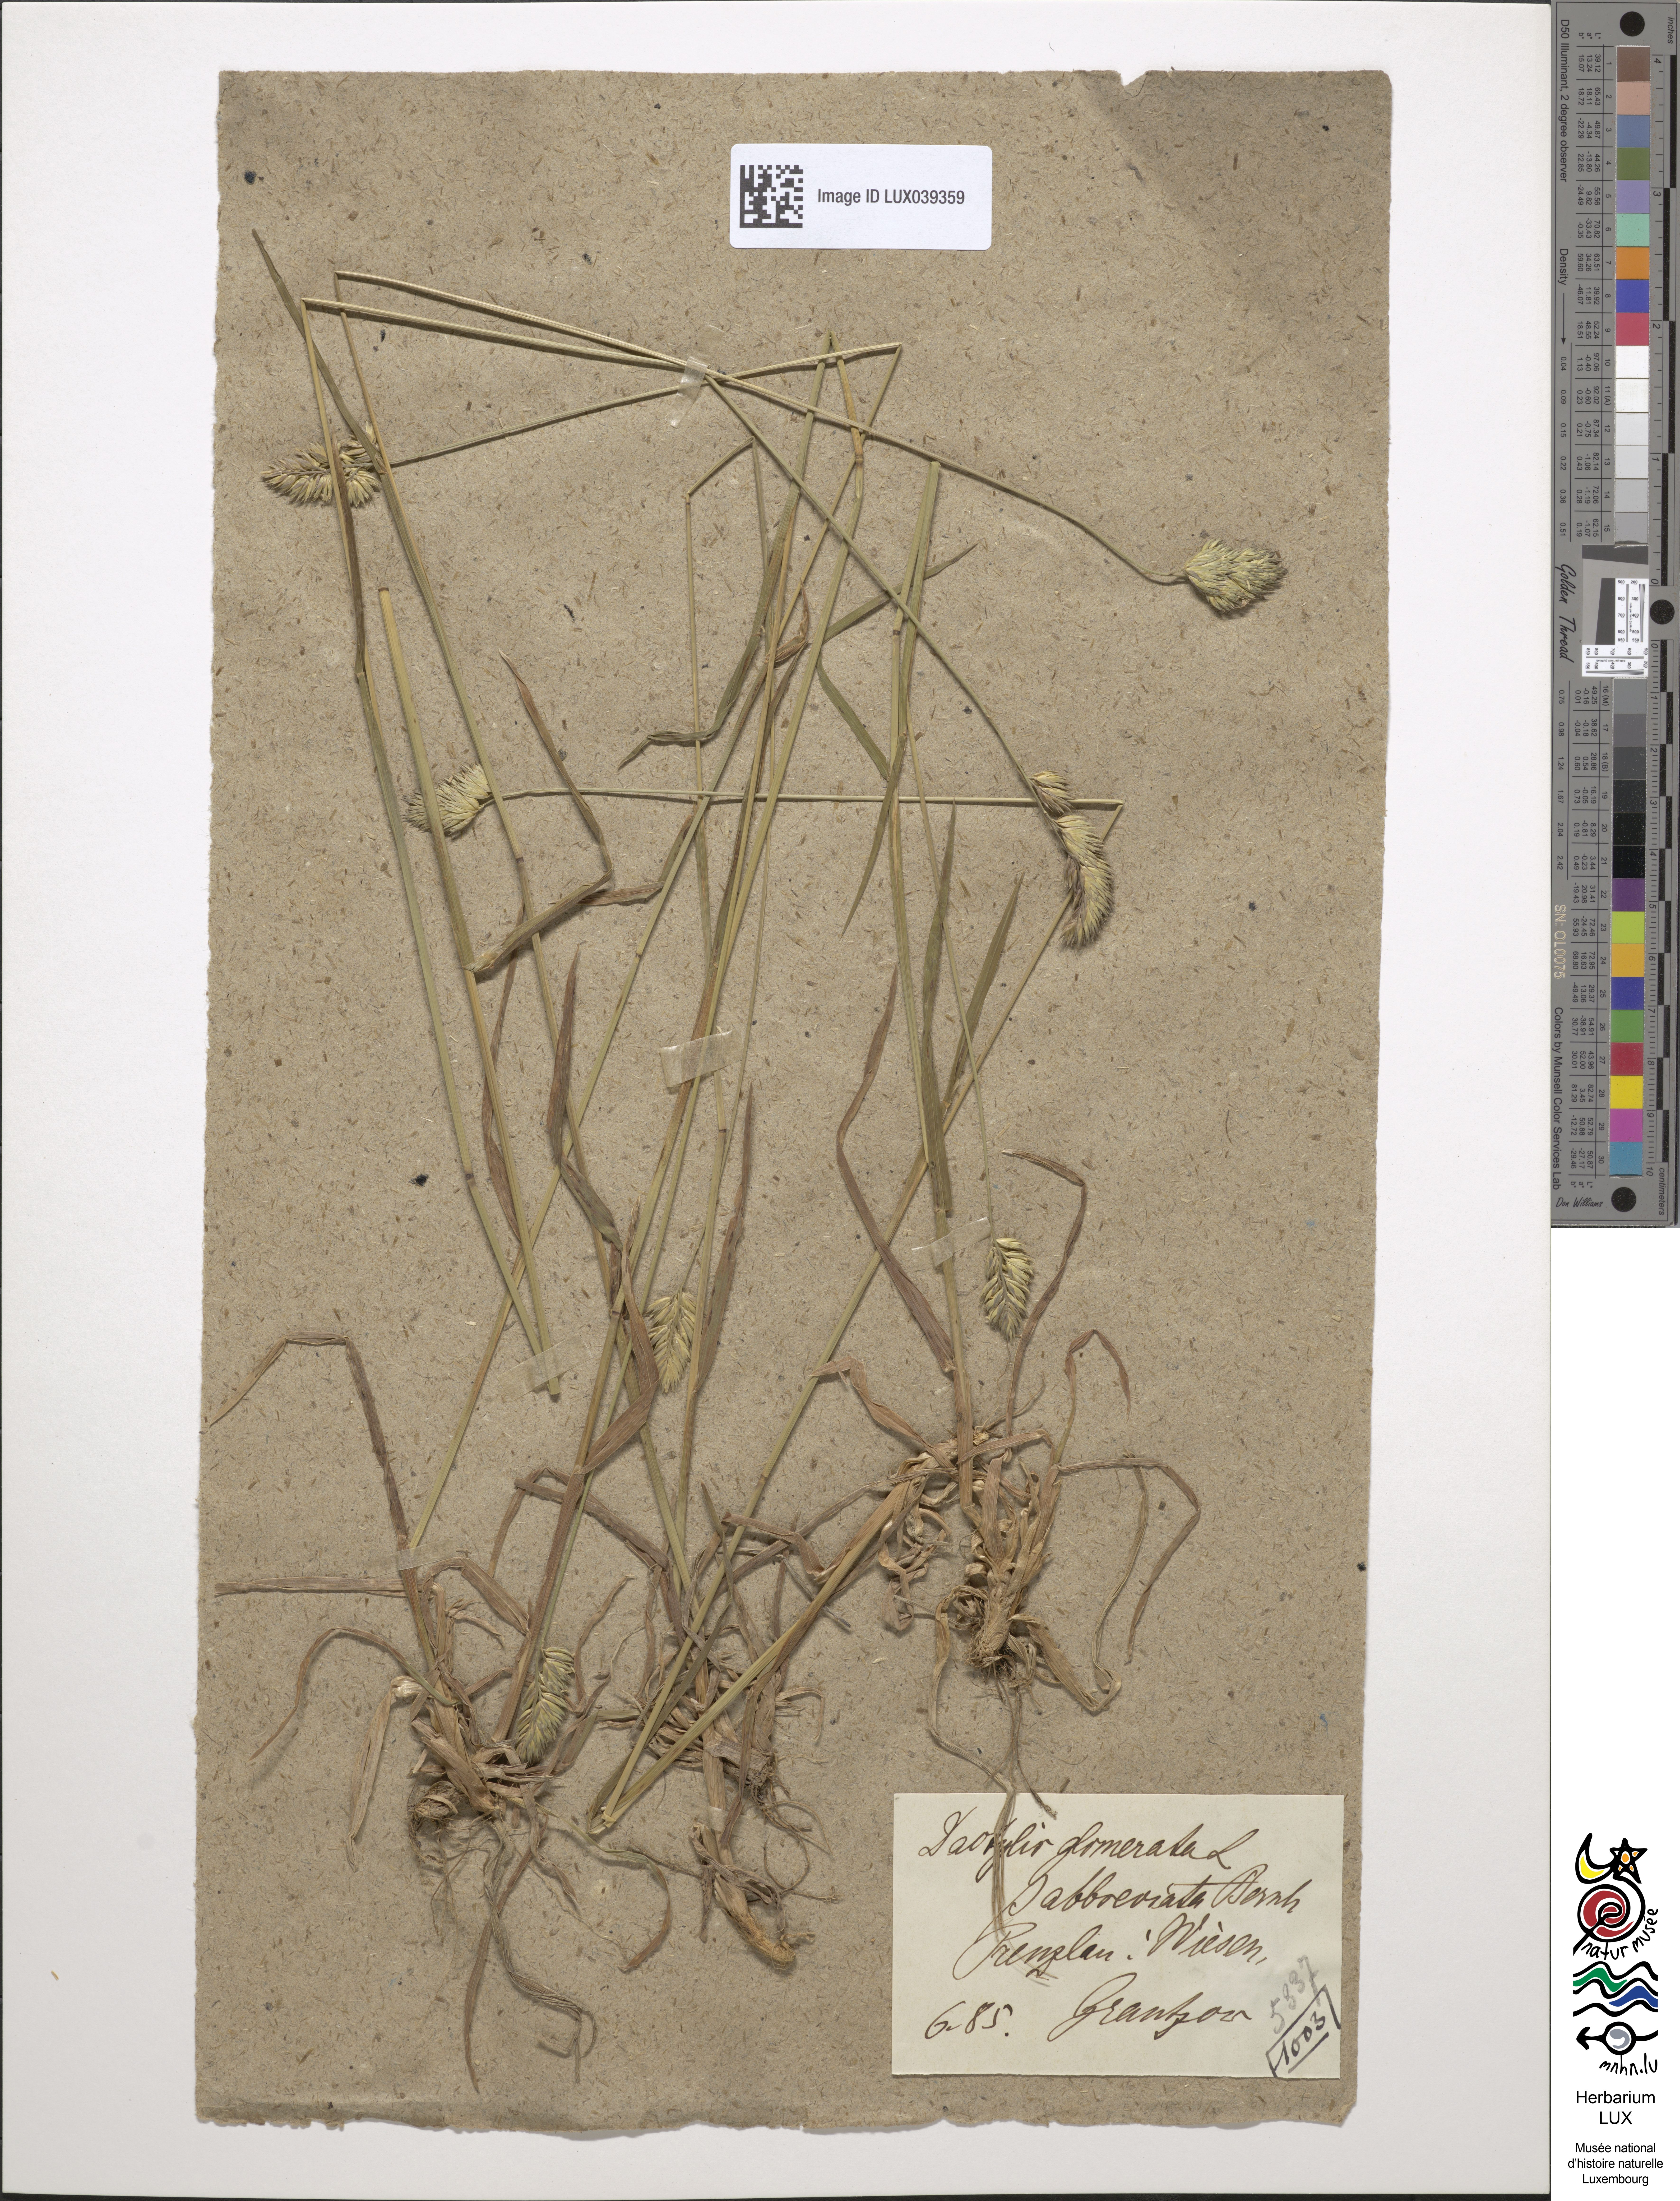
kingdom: Plantae
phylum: Tracheophyta
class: Liliopsida
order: Poales
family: Poaceae
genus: Dactylis
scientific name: Dactylis glomerata
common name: Orchardgrass
